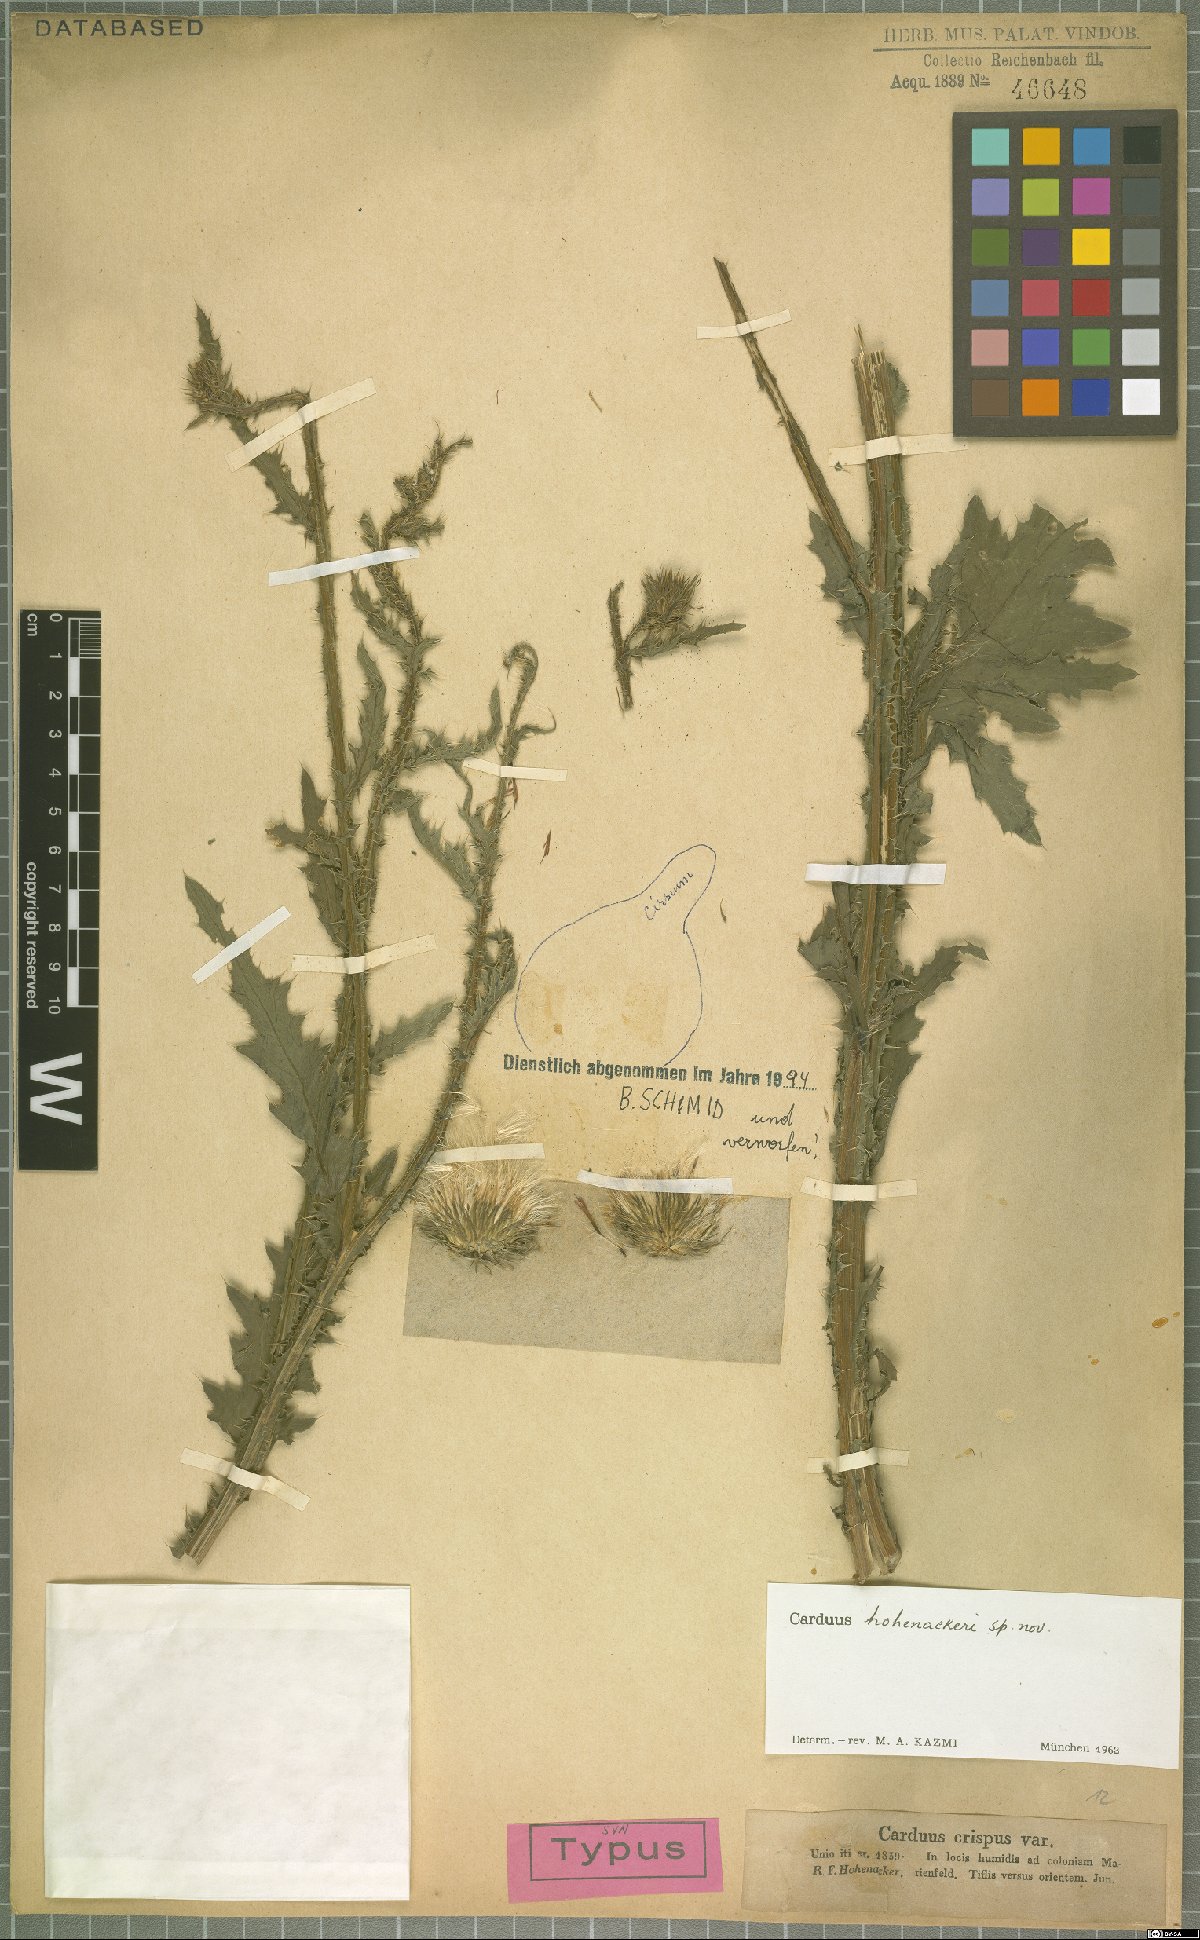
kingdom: Plantae
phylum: Tracheophyta
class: Magnoliopsida
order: Asterales
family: Asteraceae
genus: Carduus
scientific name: Carduus hohenackeri
